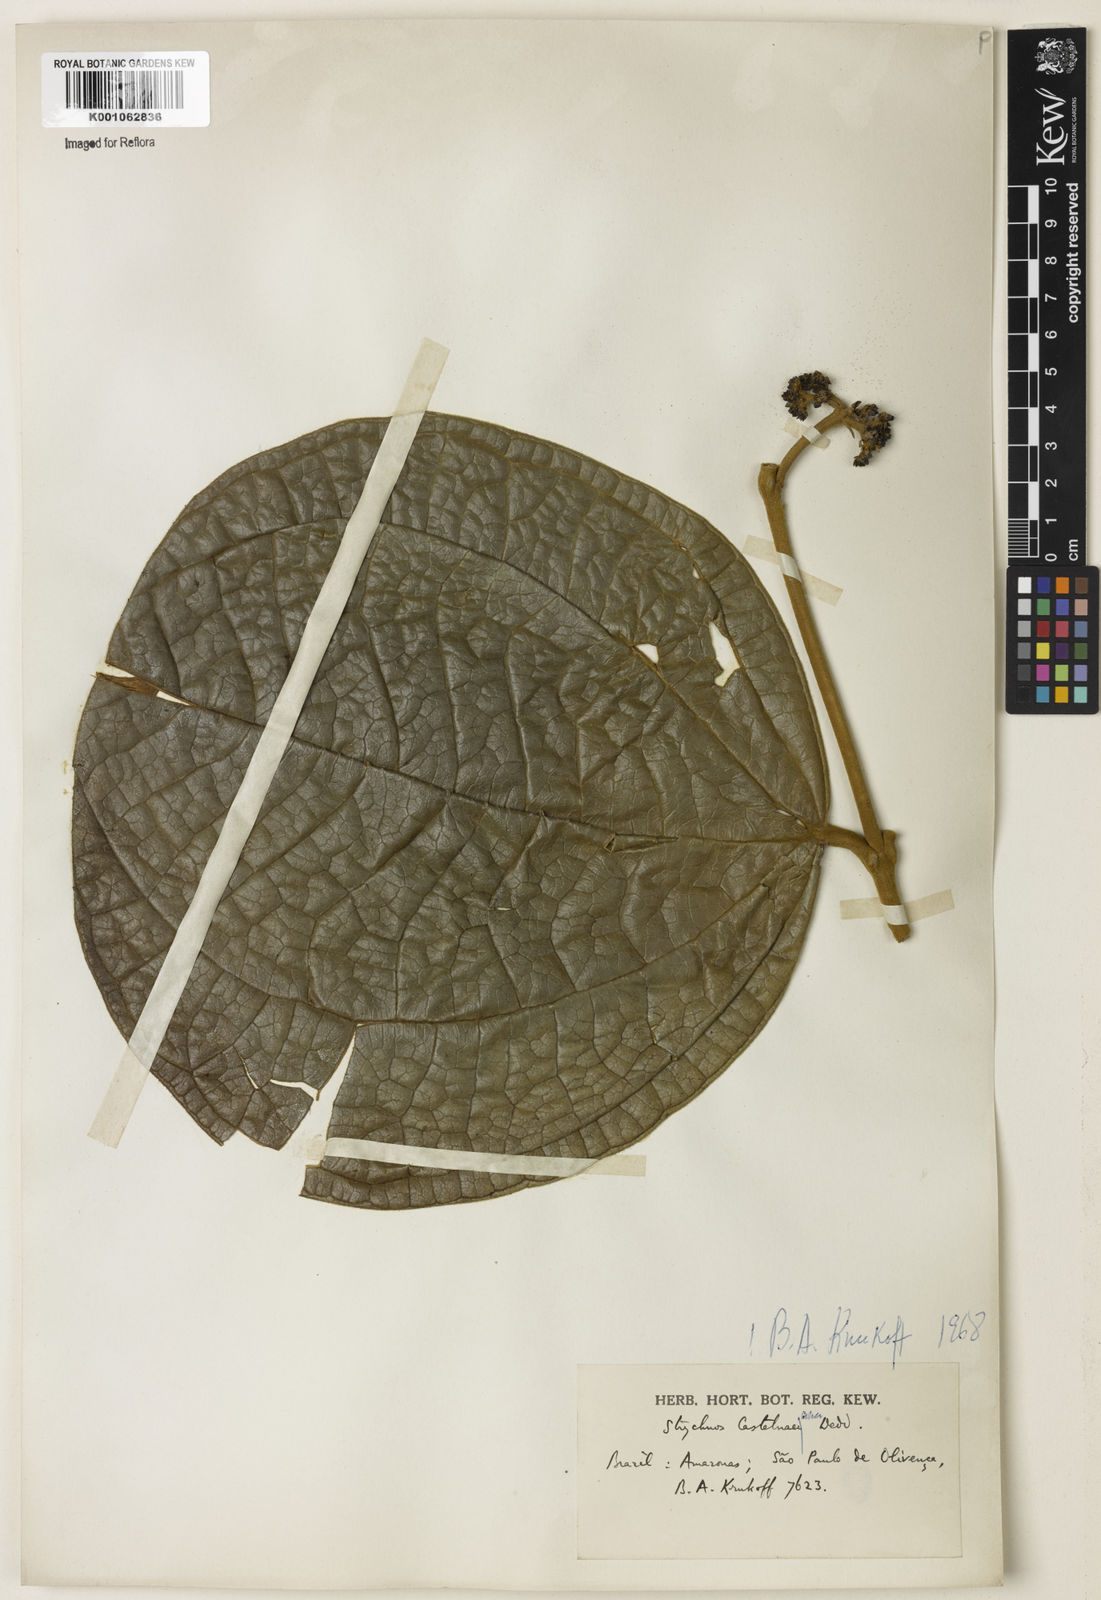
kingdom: Plantae
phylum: Tracheophyta
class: Magnoliopsida
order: Gentianales
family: Loganiaceae
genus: Strychnos
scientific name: Strychnos
